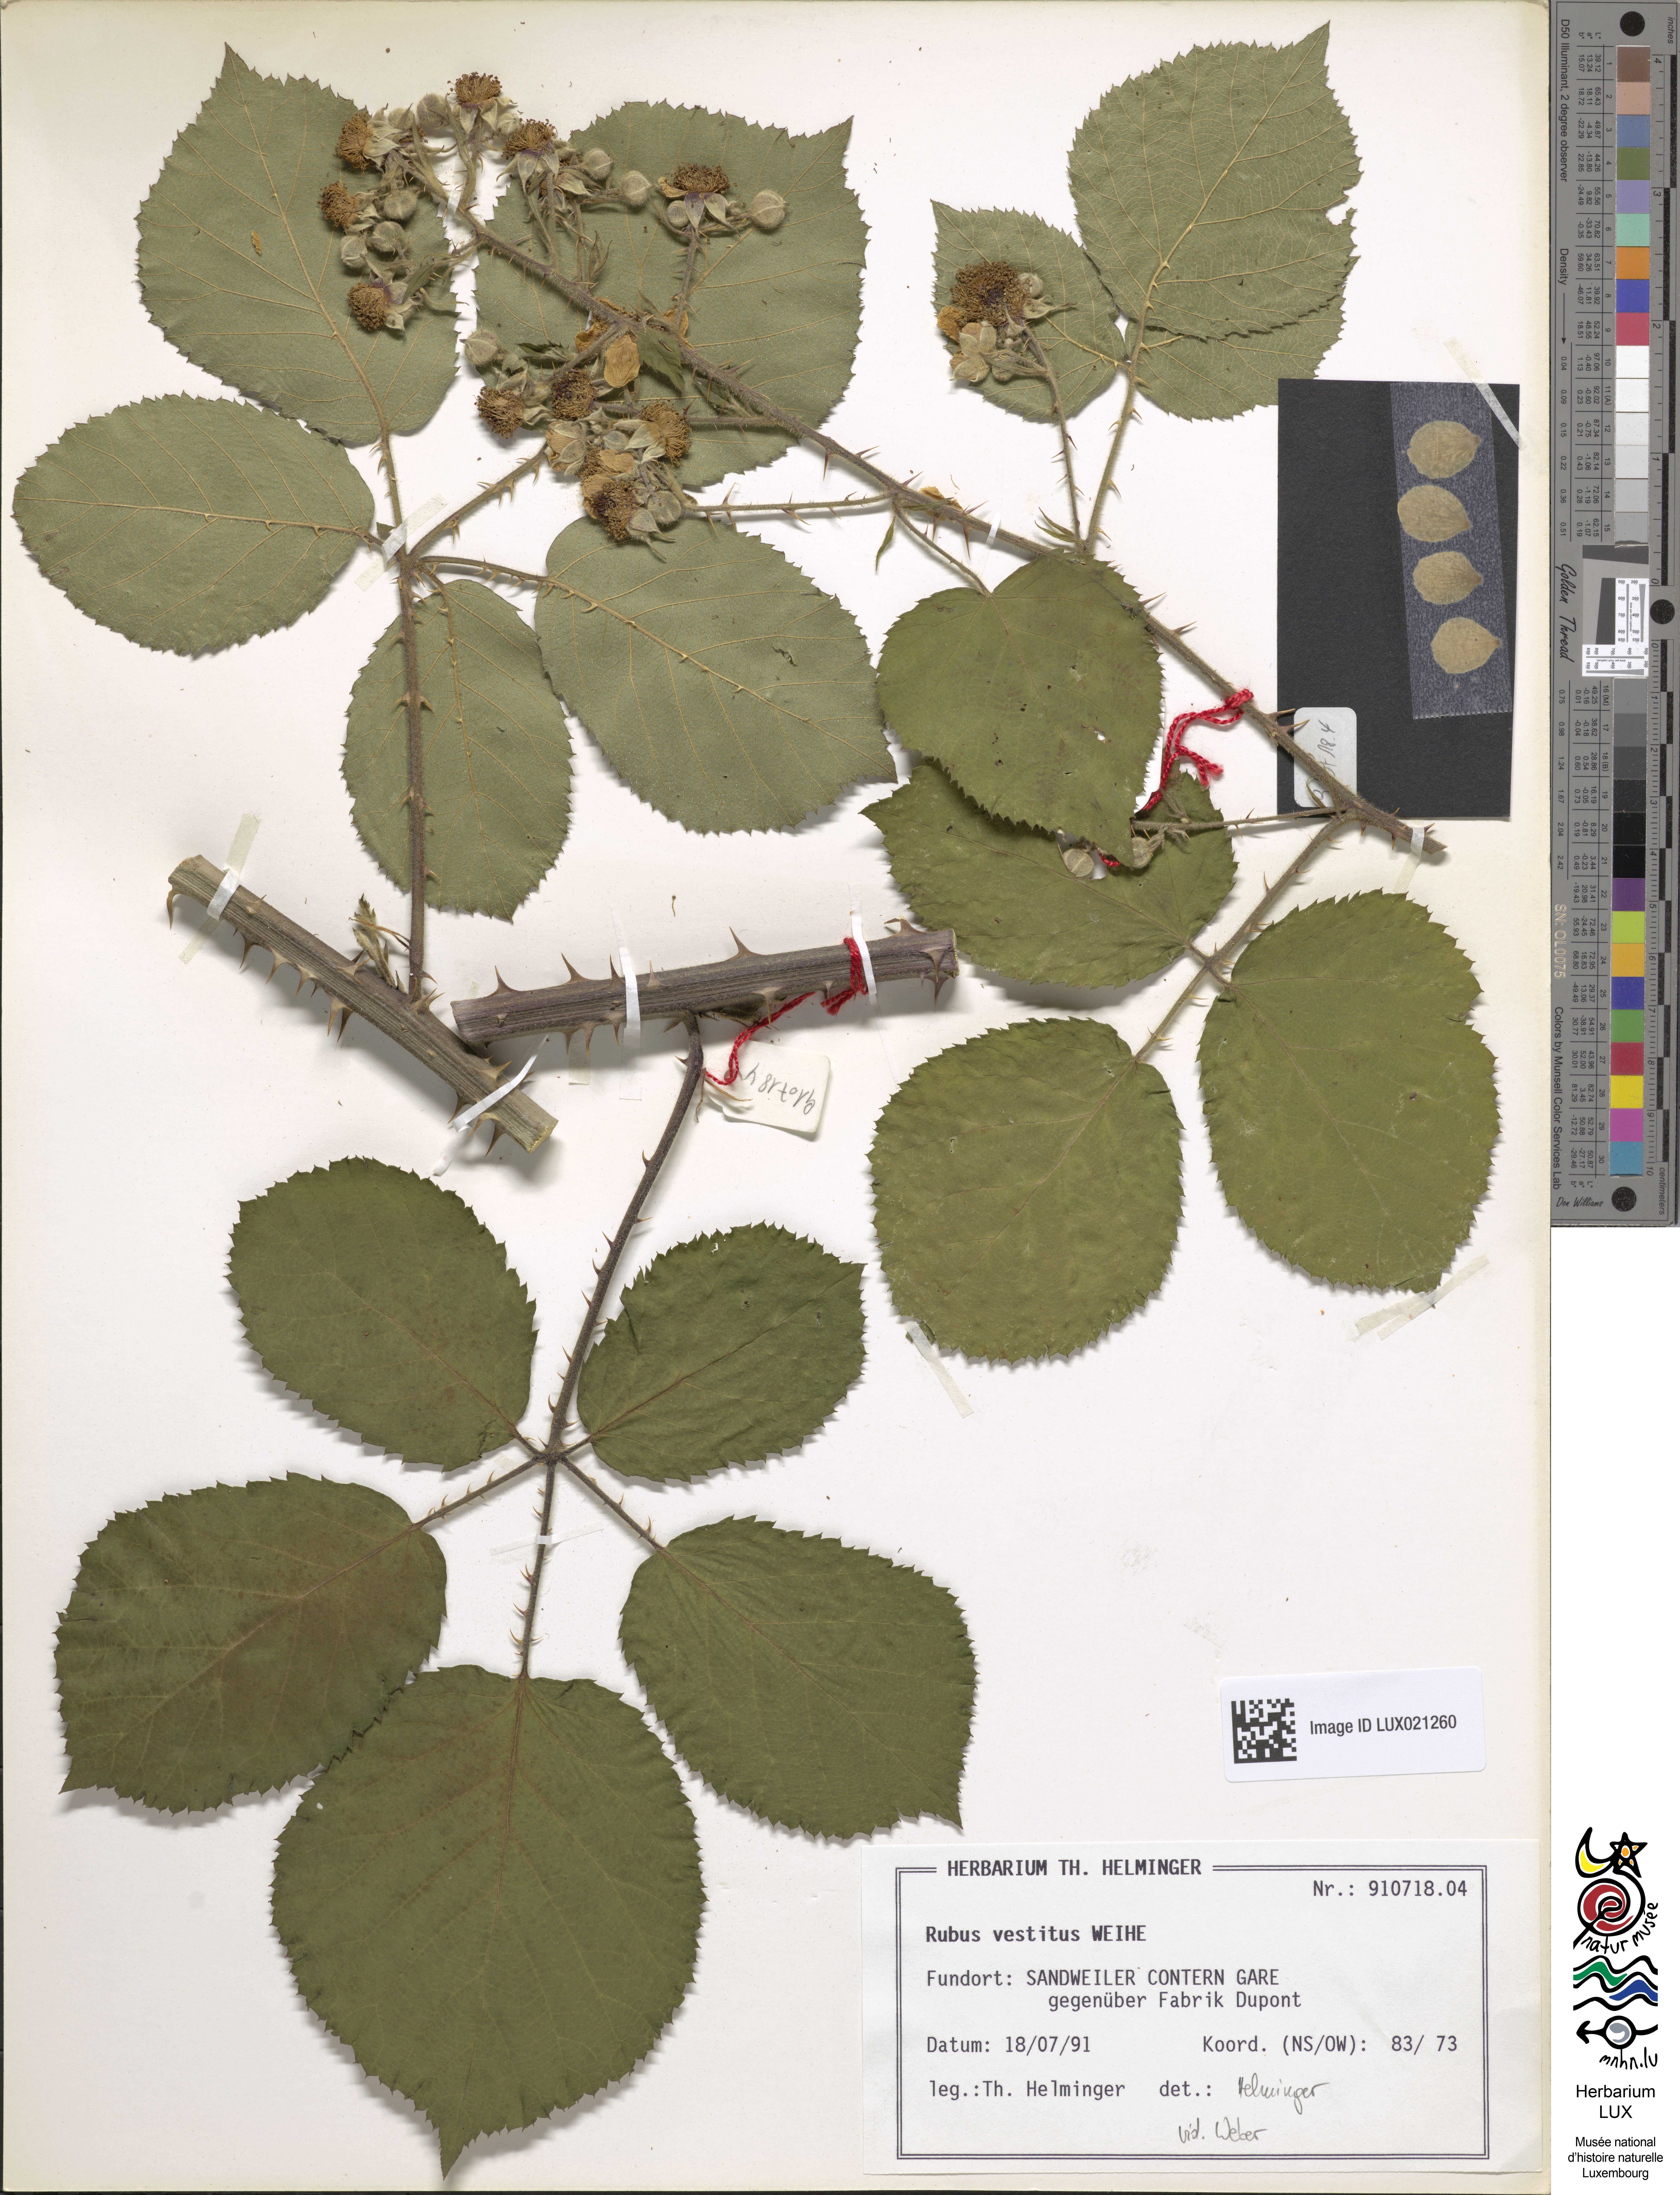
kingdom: Plantae
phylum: Tracheophyta
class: Magnoliopsida
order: Rosales
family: Rosaceae
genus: Rubus
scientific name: Rubus vestitus
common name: European blackberry
